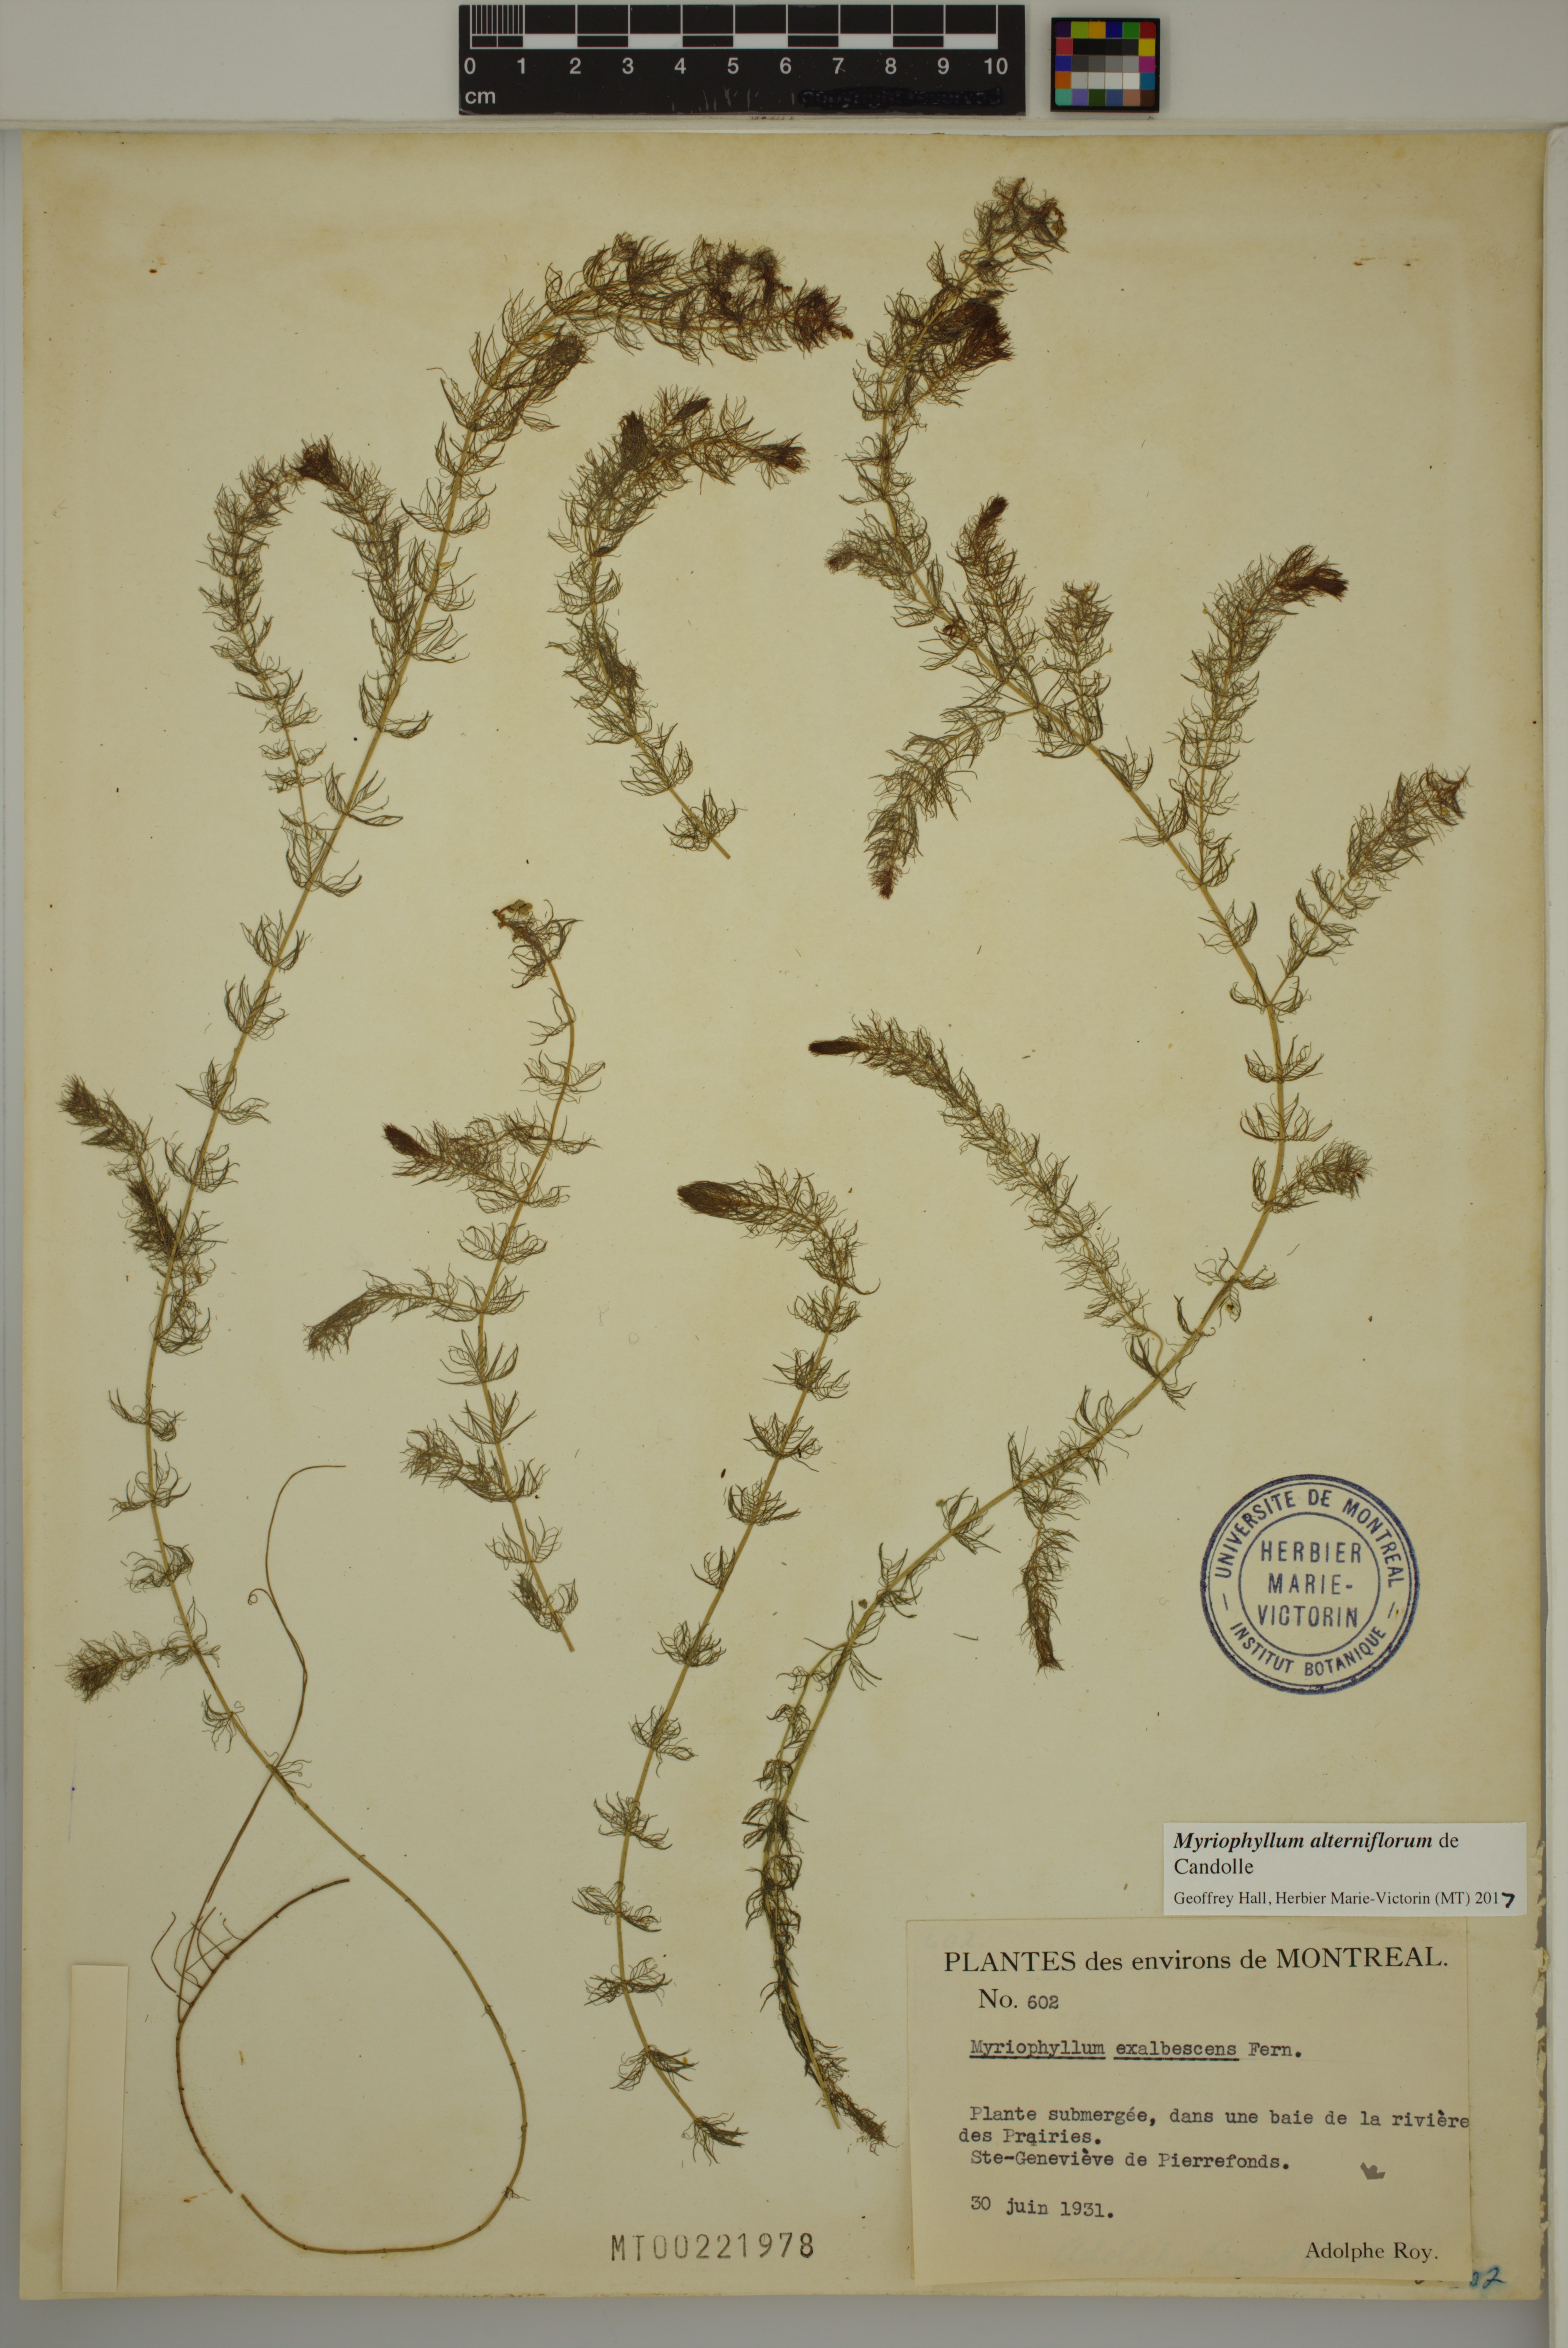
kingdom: Plantae
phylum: Tracheophyta
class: Magnoliopsida
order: Saxifragales
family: Haloragaceae
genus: Myriophyllum
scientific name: Myriophyllum alterniflorum
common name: Alternate water-milfoil
